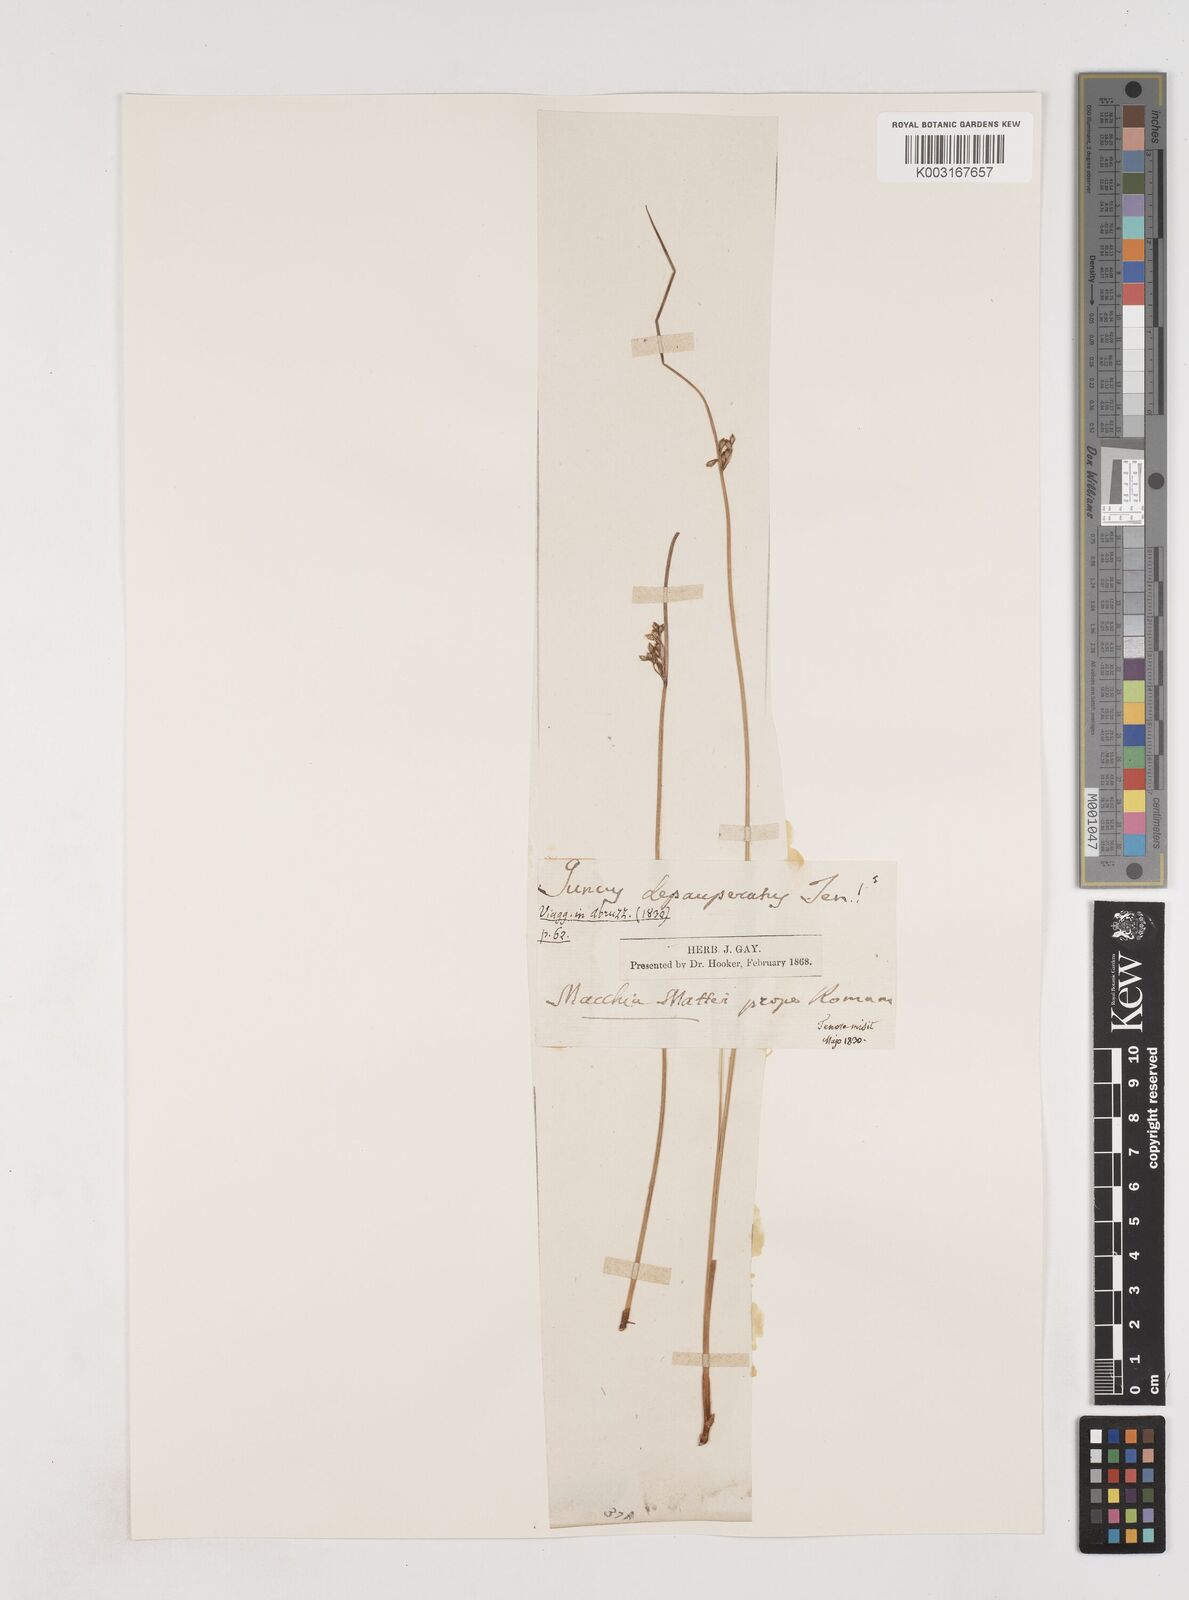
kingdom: Plantae
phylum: Tracheophyta
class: Liliopsida
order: Poales
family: Juncaceae
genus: Juncus
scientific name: Juncus depauperatus
